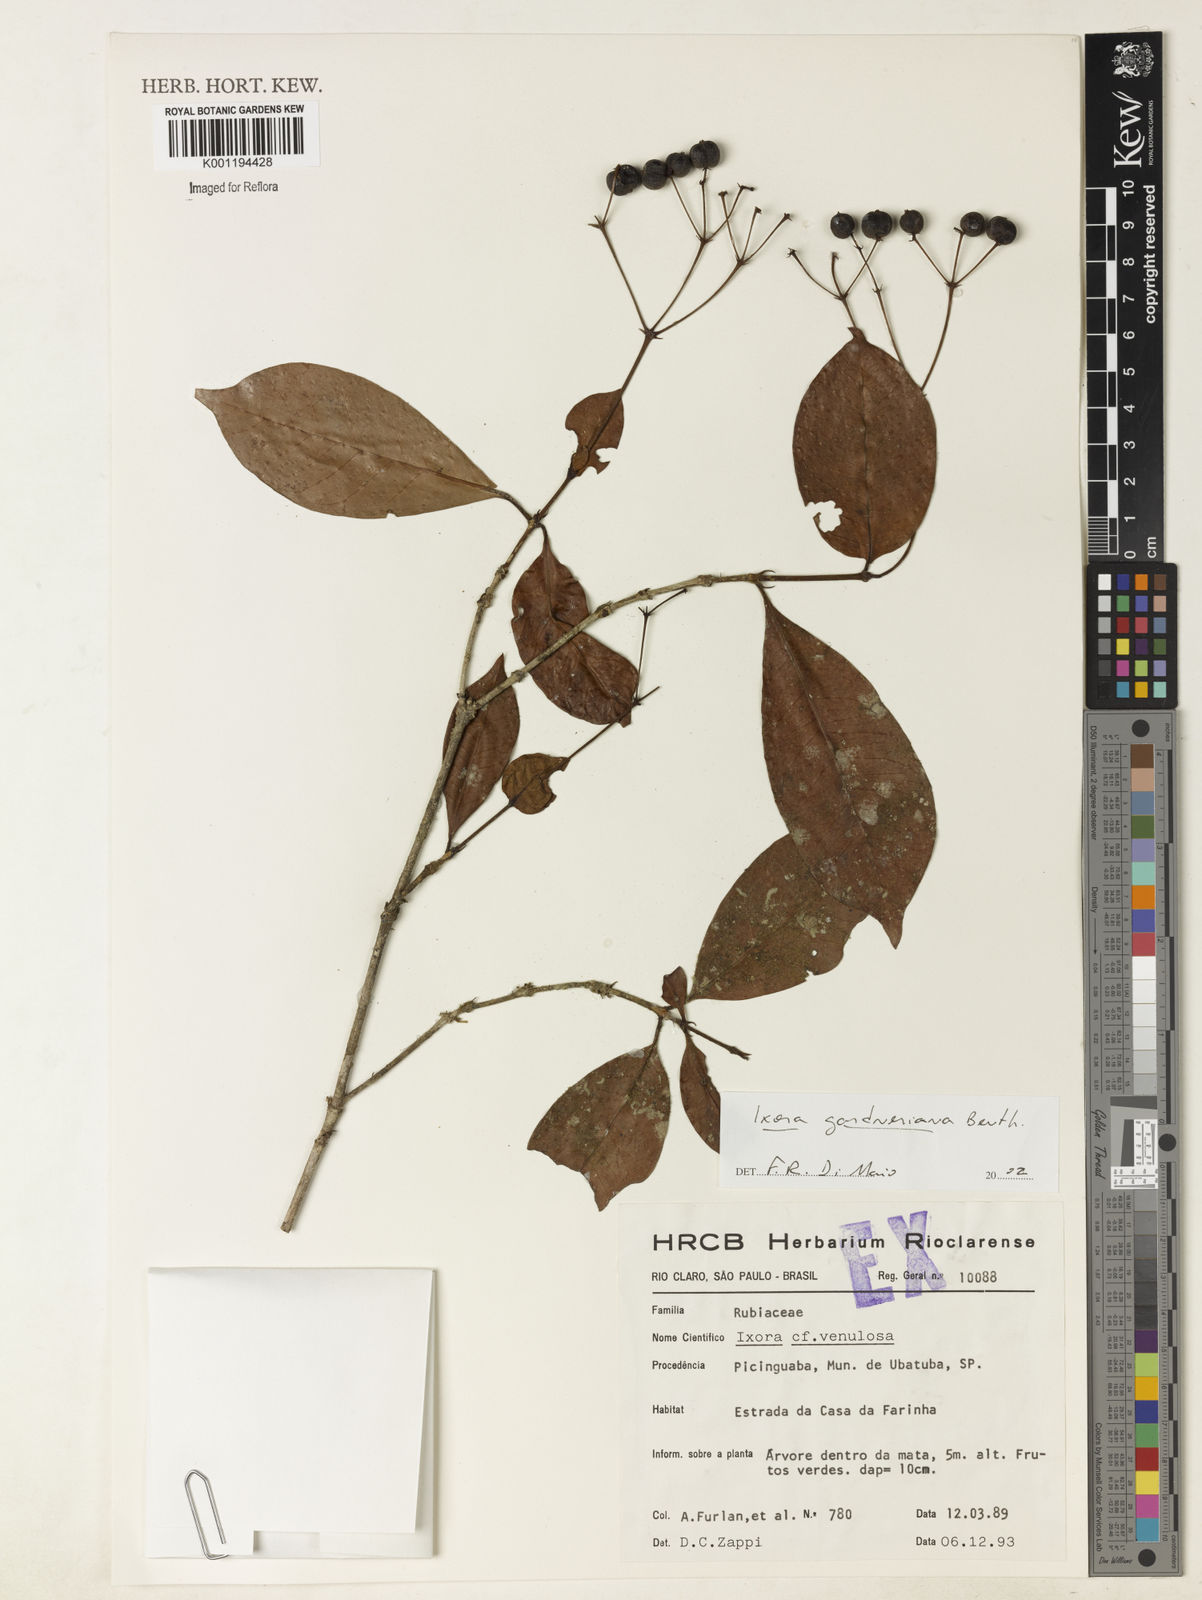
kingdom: Plantae
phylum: Tracheophyta
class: Magnoliopsida
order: Gentianales
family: Rubiaceae
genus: Ixora
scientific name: Ixora gardneriana
